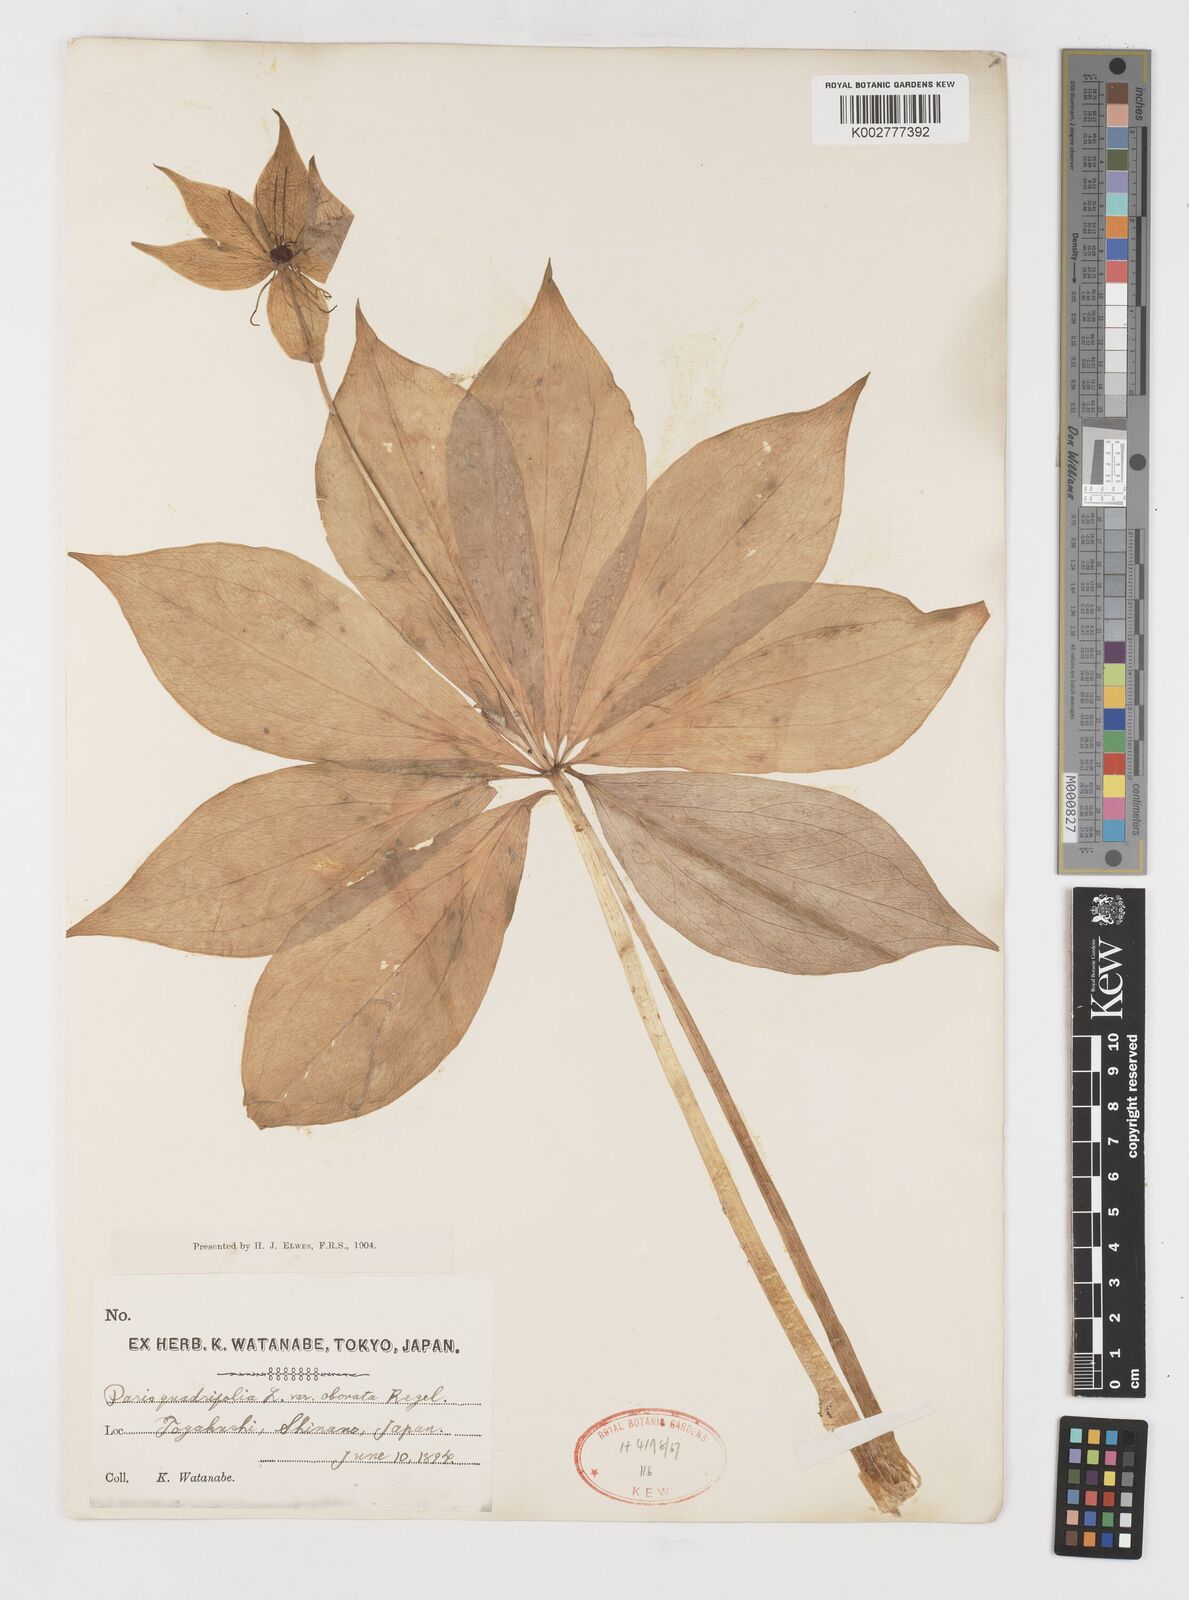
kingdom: Plantae
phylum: Tracheophyta
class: Liliopsida
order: Liliales
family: Melanthiaceae
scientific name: Melanthiaceae
